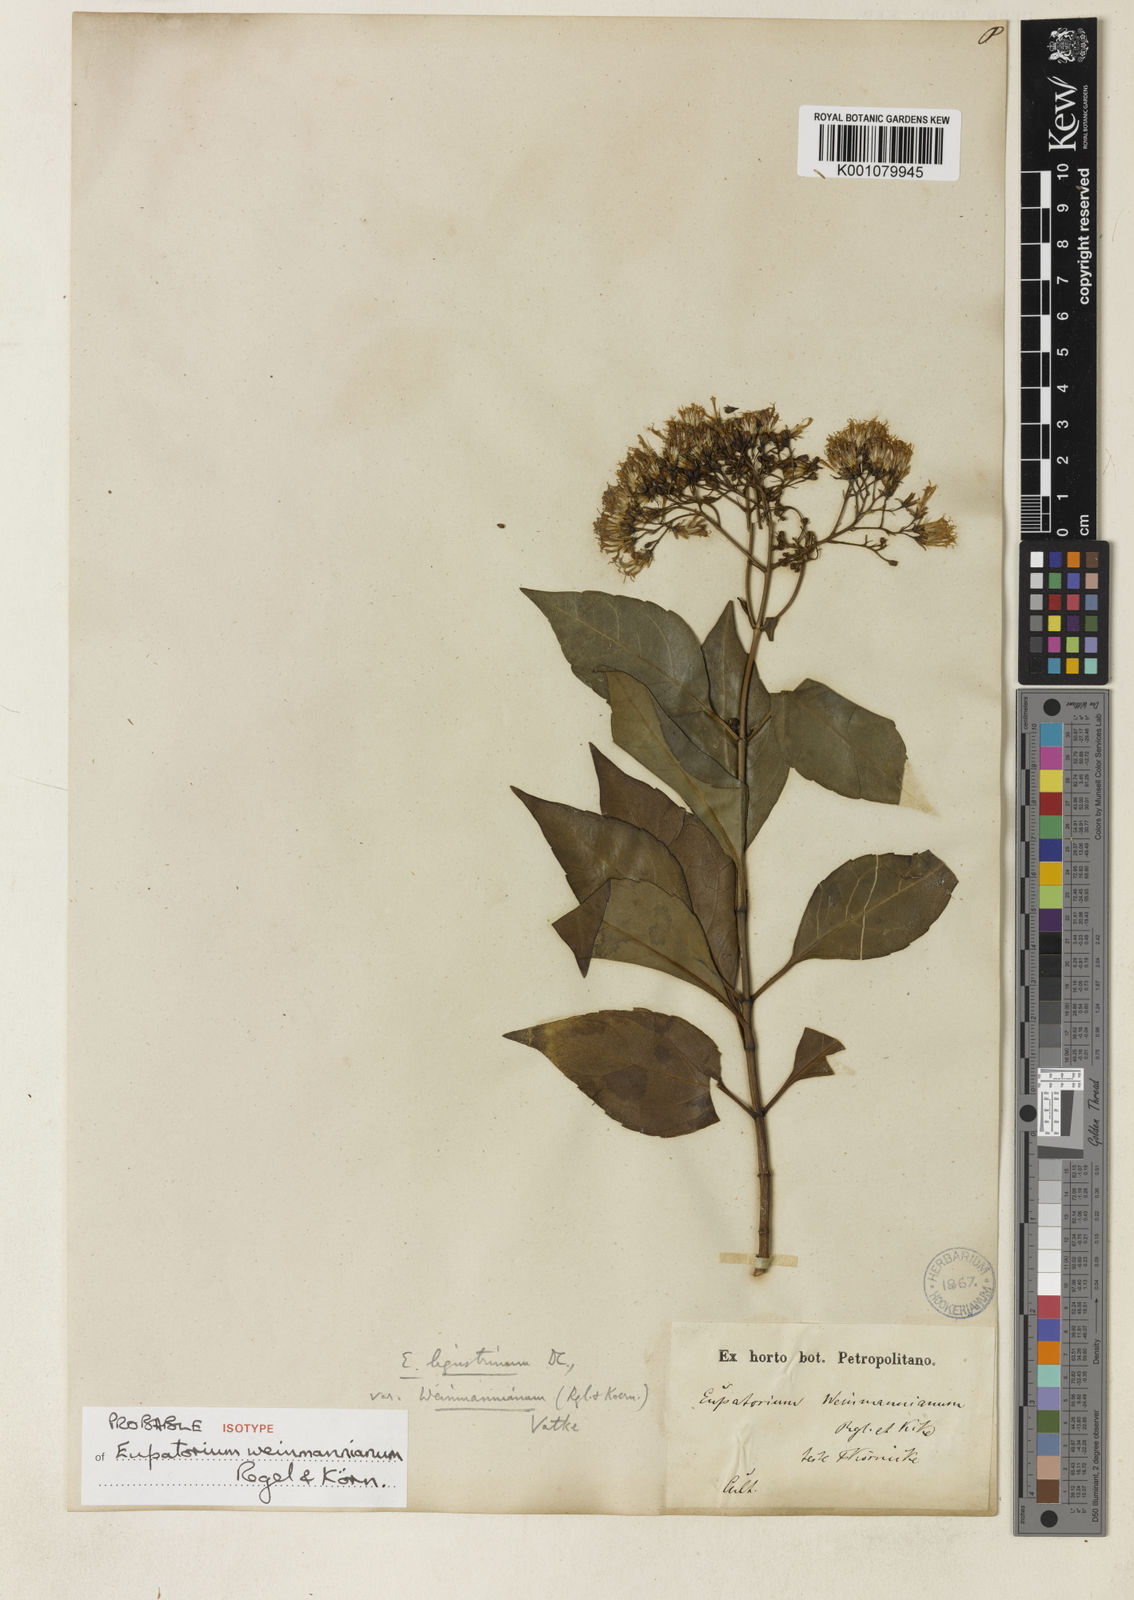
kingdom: Plantae
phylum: Tracheophyta
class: Magnoliopsida
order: Asterales
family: Asteraceae
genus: Ageratina
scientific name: Ageratina ligustrina
